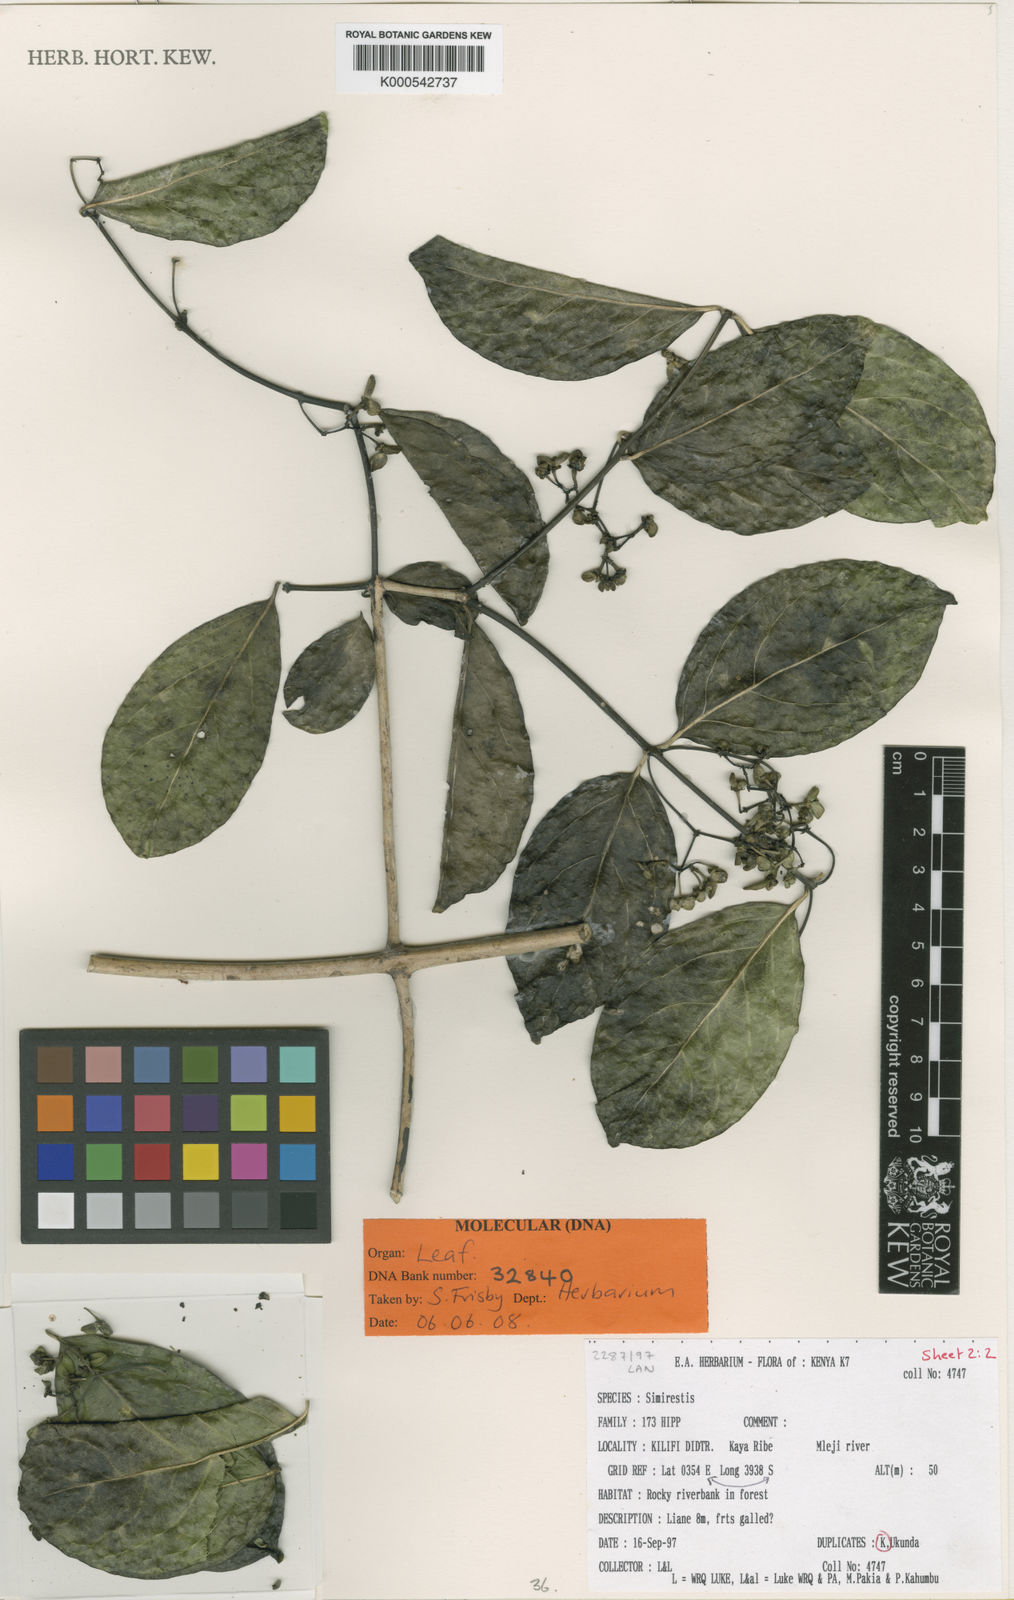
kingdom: Plantae
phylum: Tracheophyta
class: Magnoliopsida
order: Celastrales
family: Celastraceae
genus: Simicratea
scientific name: Simicratea
